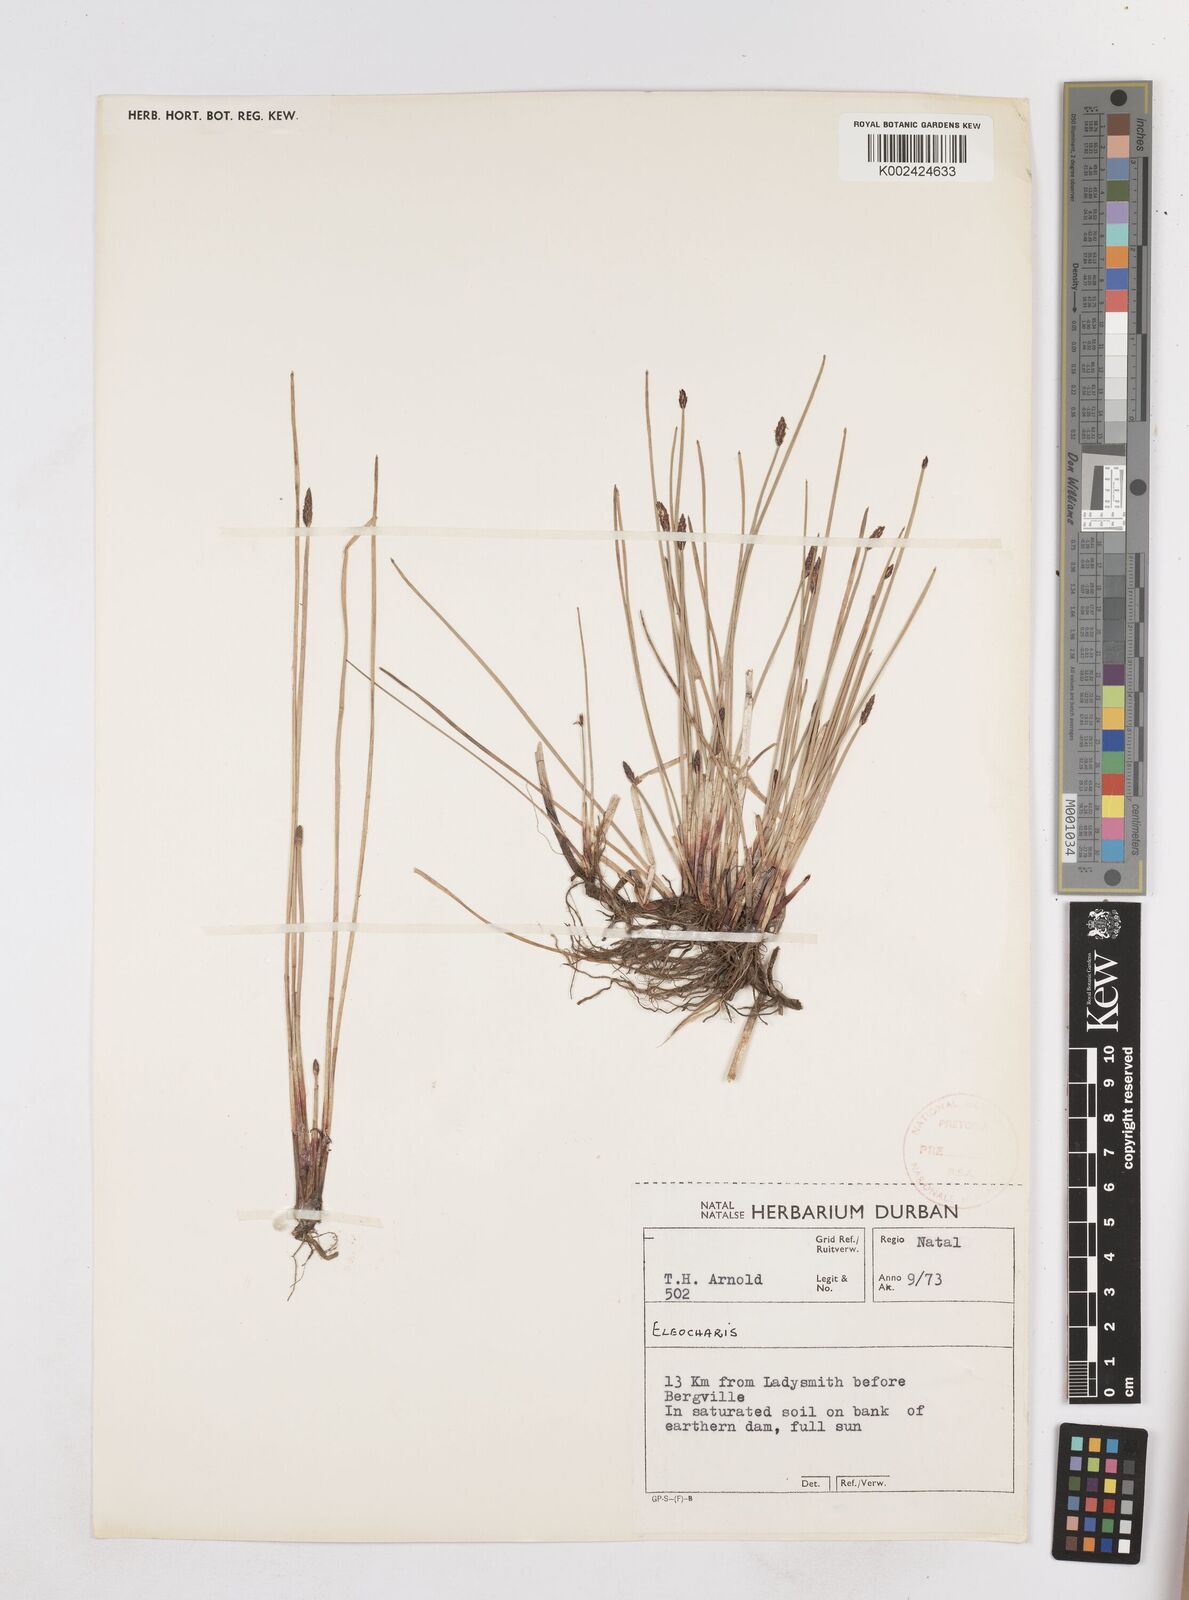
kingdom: Plantae
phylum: Tracheophyta
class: Liliopsida
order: Poales
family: Cyperaceae
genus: Eleocharis
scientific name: Eleocharis
